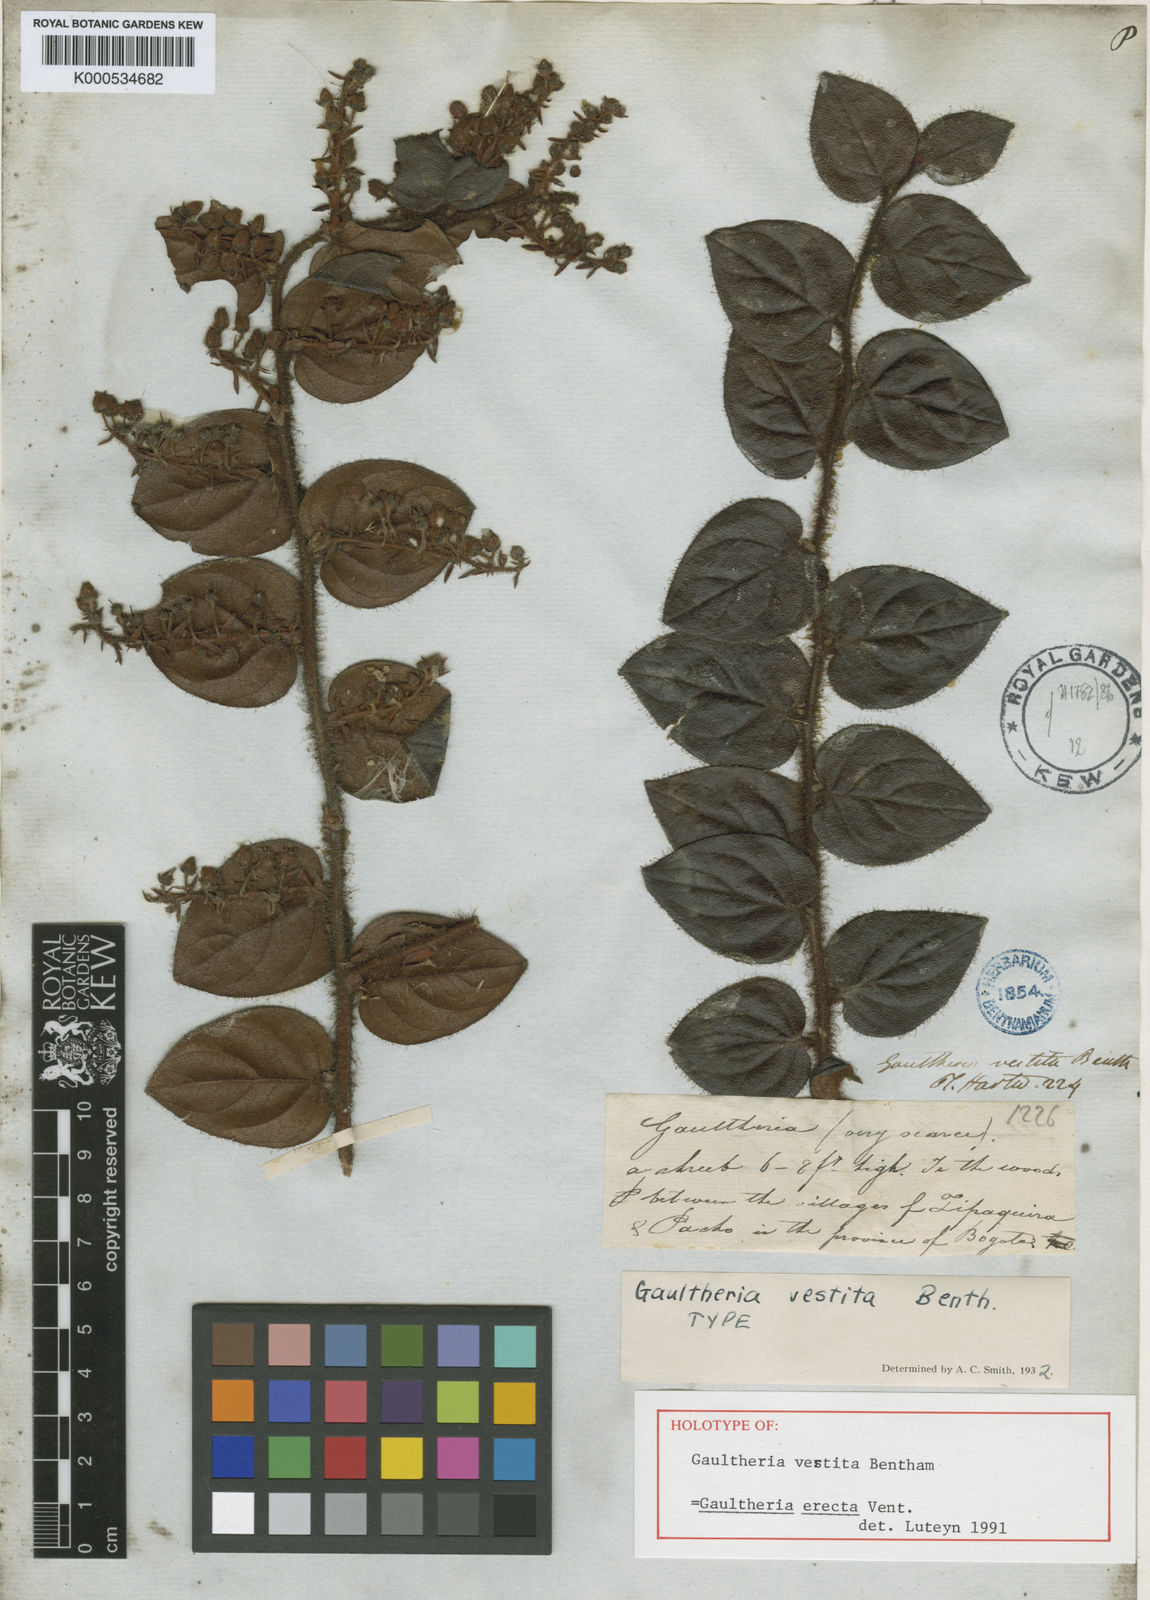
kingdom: Plantae
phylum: Tracheophyta
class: Magnoliopsida
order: Ericales
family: Ericaceae
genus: Gaultheria
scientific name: Gaultheria erecta
